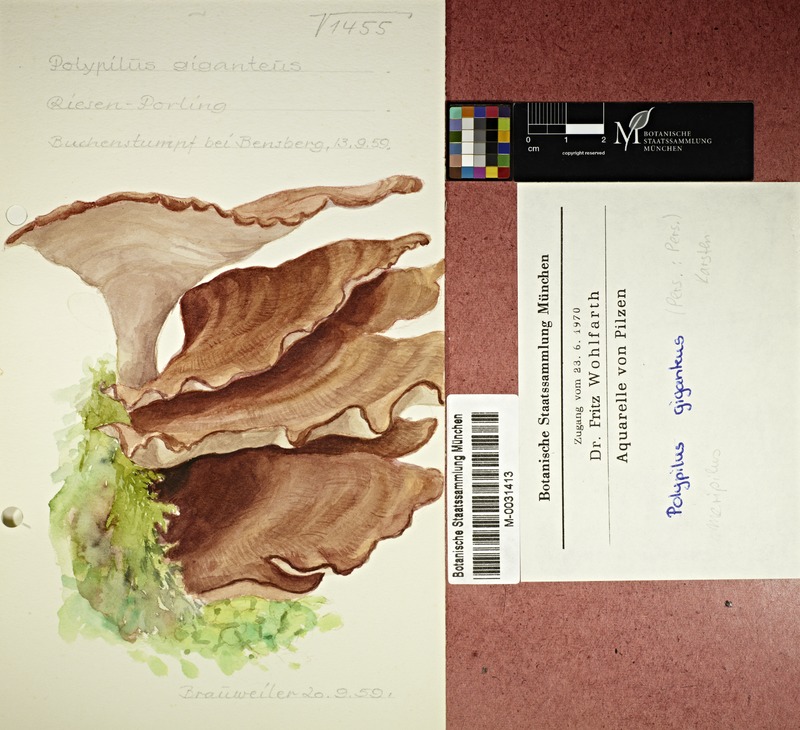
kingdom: Fungi
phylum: Basidiomycota
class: Agaricomycetes
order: Polyporales
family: Meripilaceae
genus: Meripilus
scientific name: Meripilus giganteus
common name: Giant polypore
